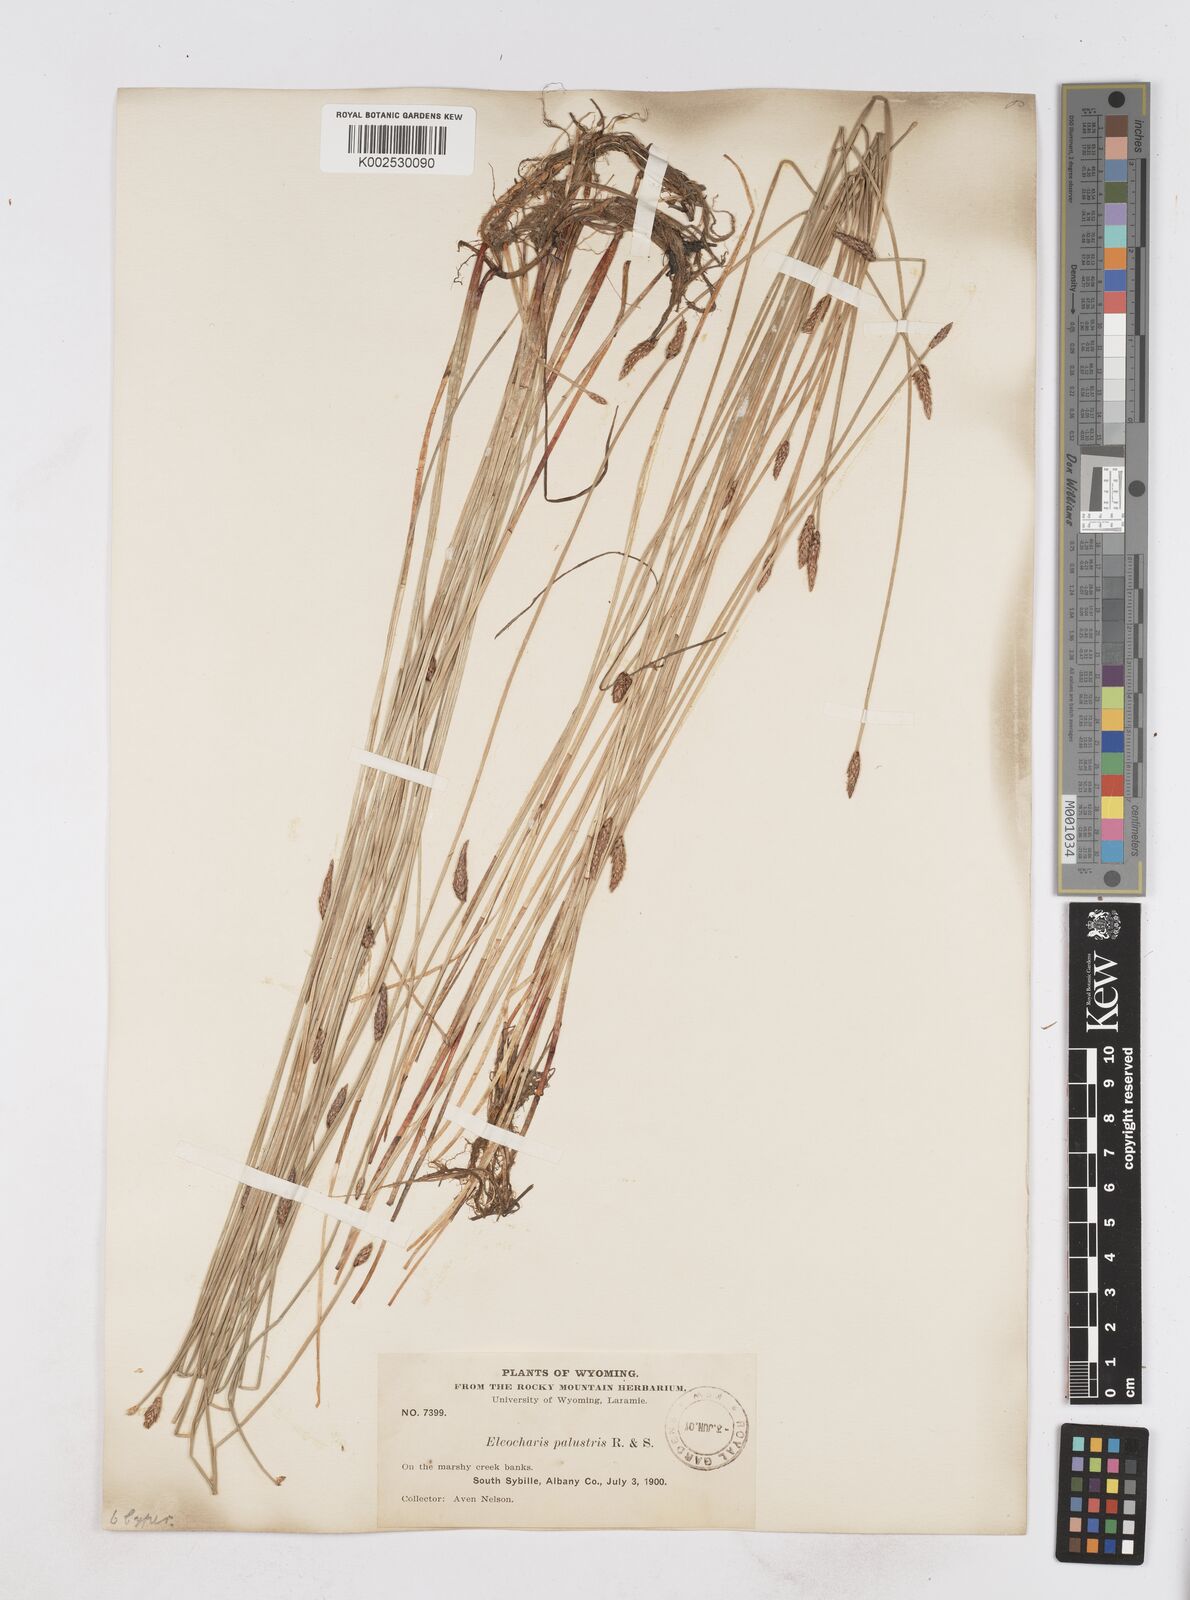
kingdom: Plantae
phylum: Tracheophyta
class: Liliopsida
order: Poales
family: Cyperaceae
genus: Eleocharis
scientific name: Eleocharis palustris
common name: Common spike-rush
